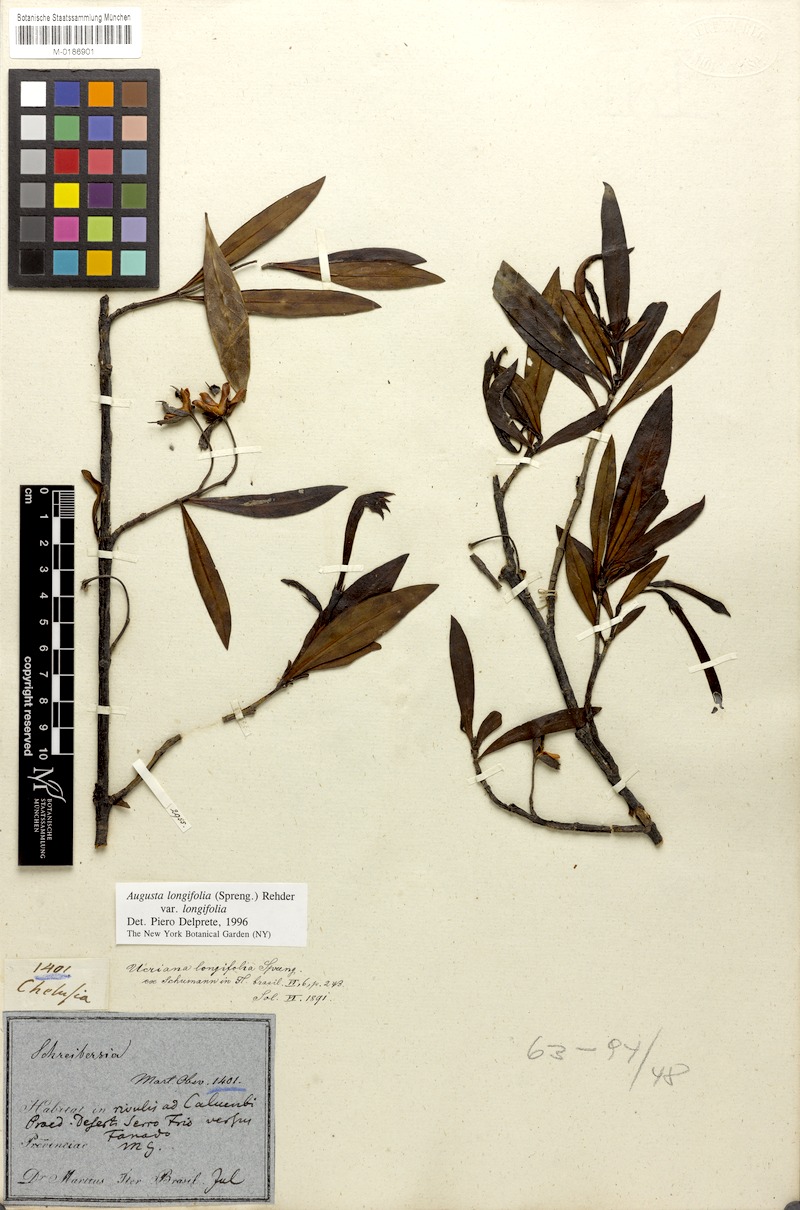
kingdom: Plantae
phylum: Tracheophyta
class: Magnoliopsida
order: Gentianales
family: Rubiaceae
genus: Augusta
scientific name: Augusta longifolia
